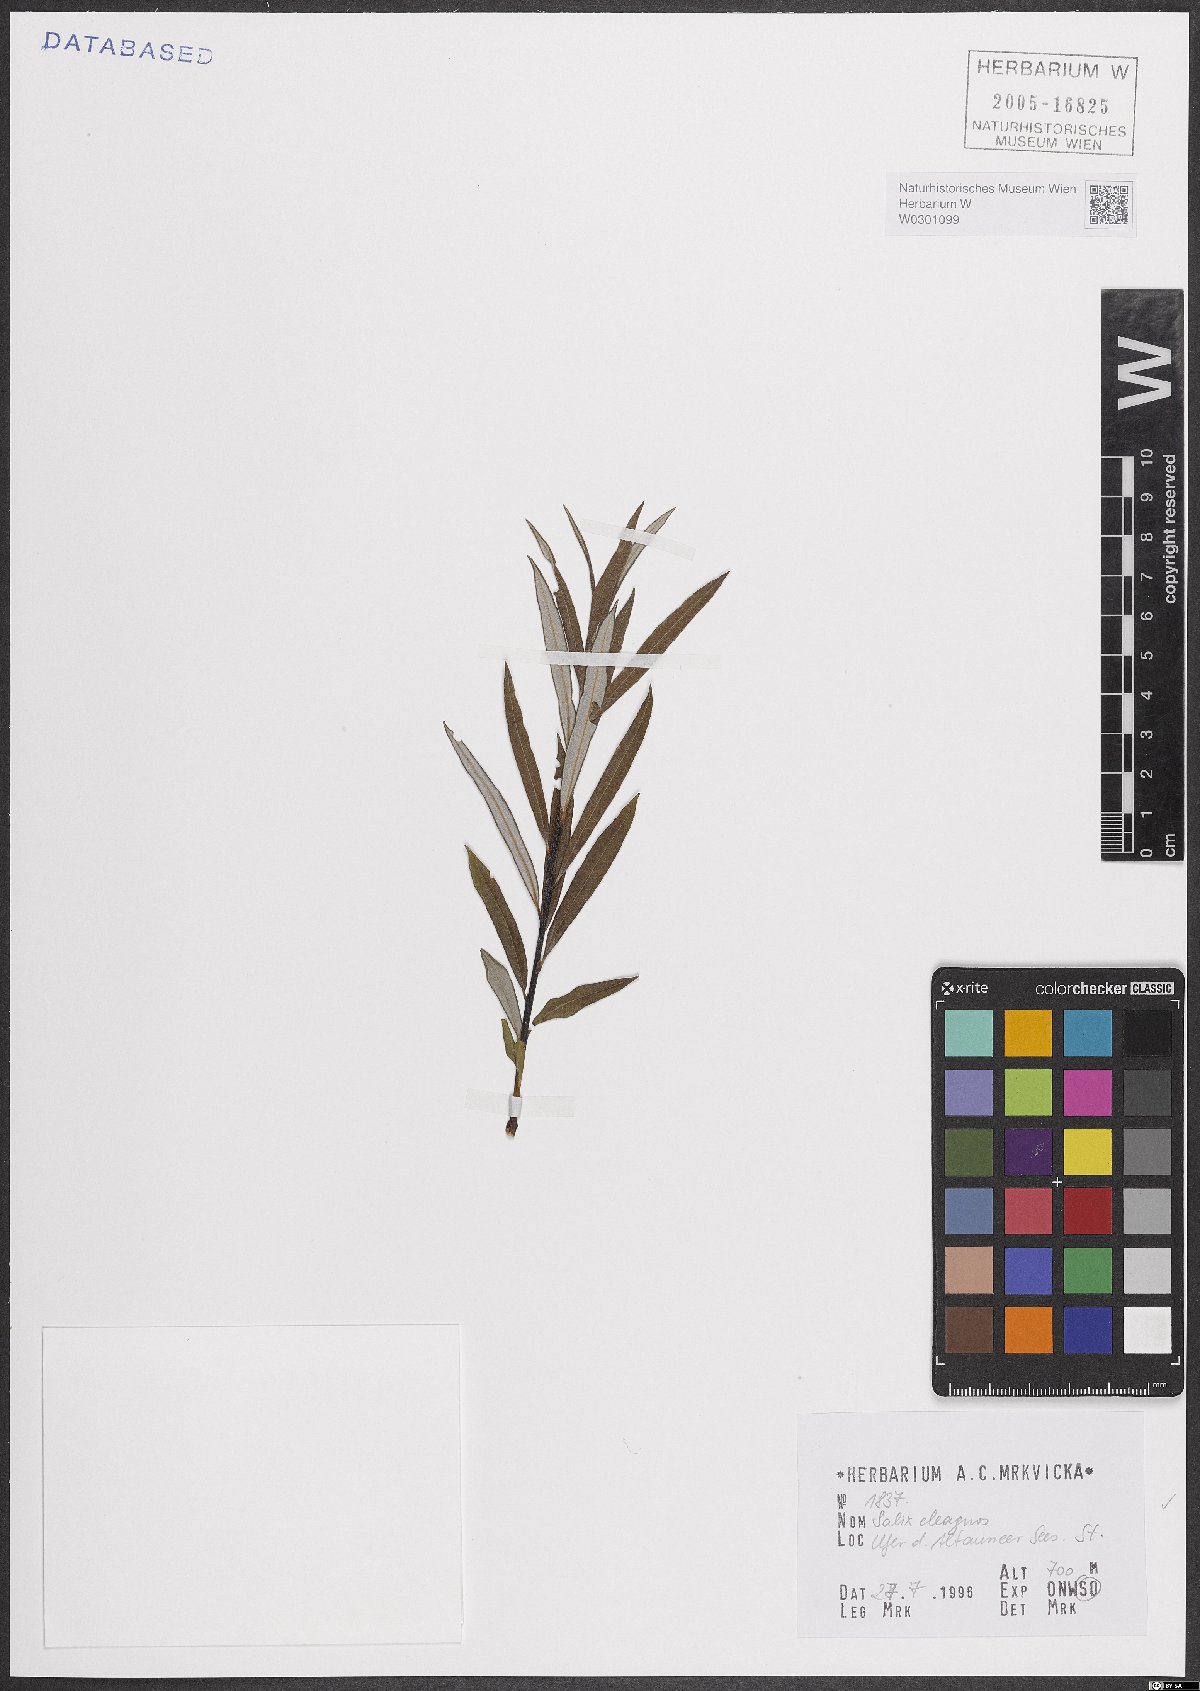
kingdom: Plantae
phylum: Tracheophyta
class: Magnoliopsida
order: Malpighiales
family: Salicaceae
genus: Salix
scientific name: Salix eleagnos
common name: Elaeagnus willow
